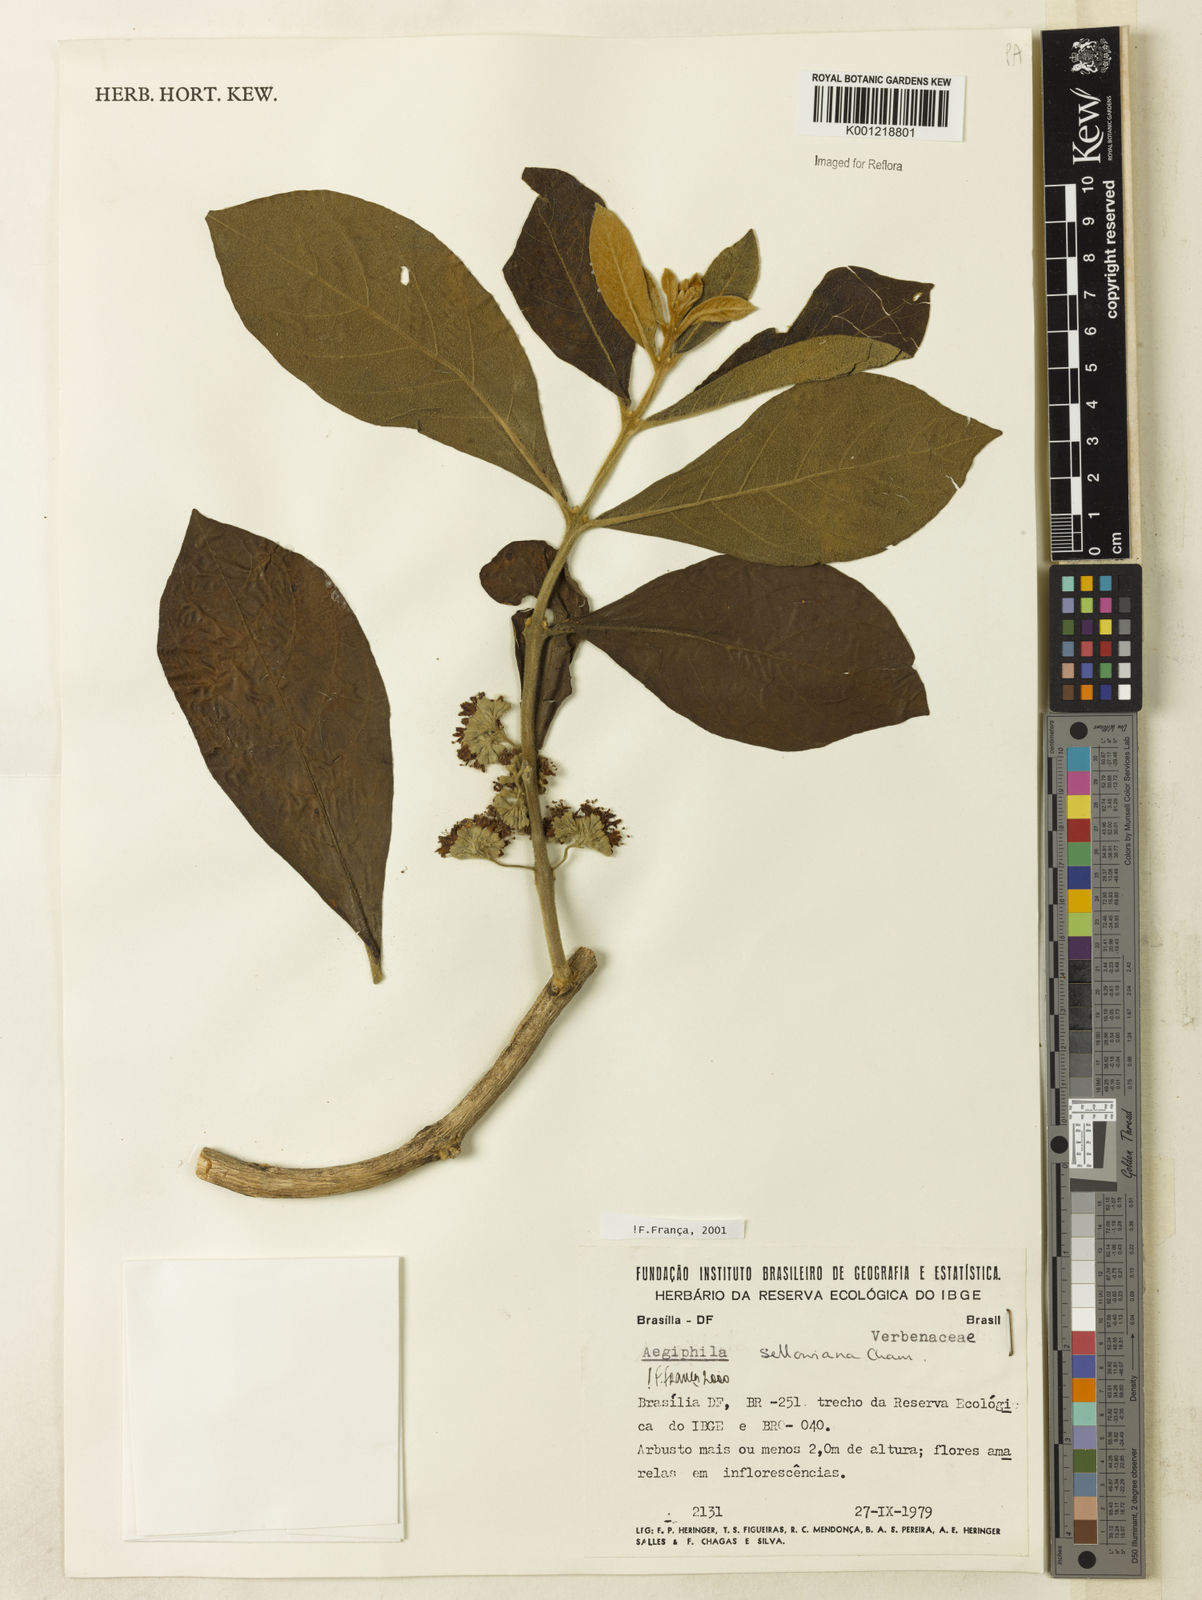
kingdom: Plantae
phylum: Tracheophyta
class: Magnoliopsida
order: Lamiales
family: Lamiaceae
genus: Aegiphila
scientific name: Aegiphila verticillata
